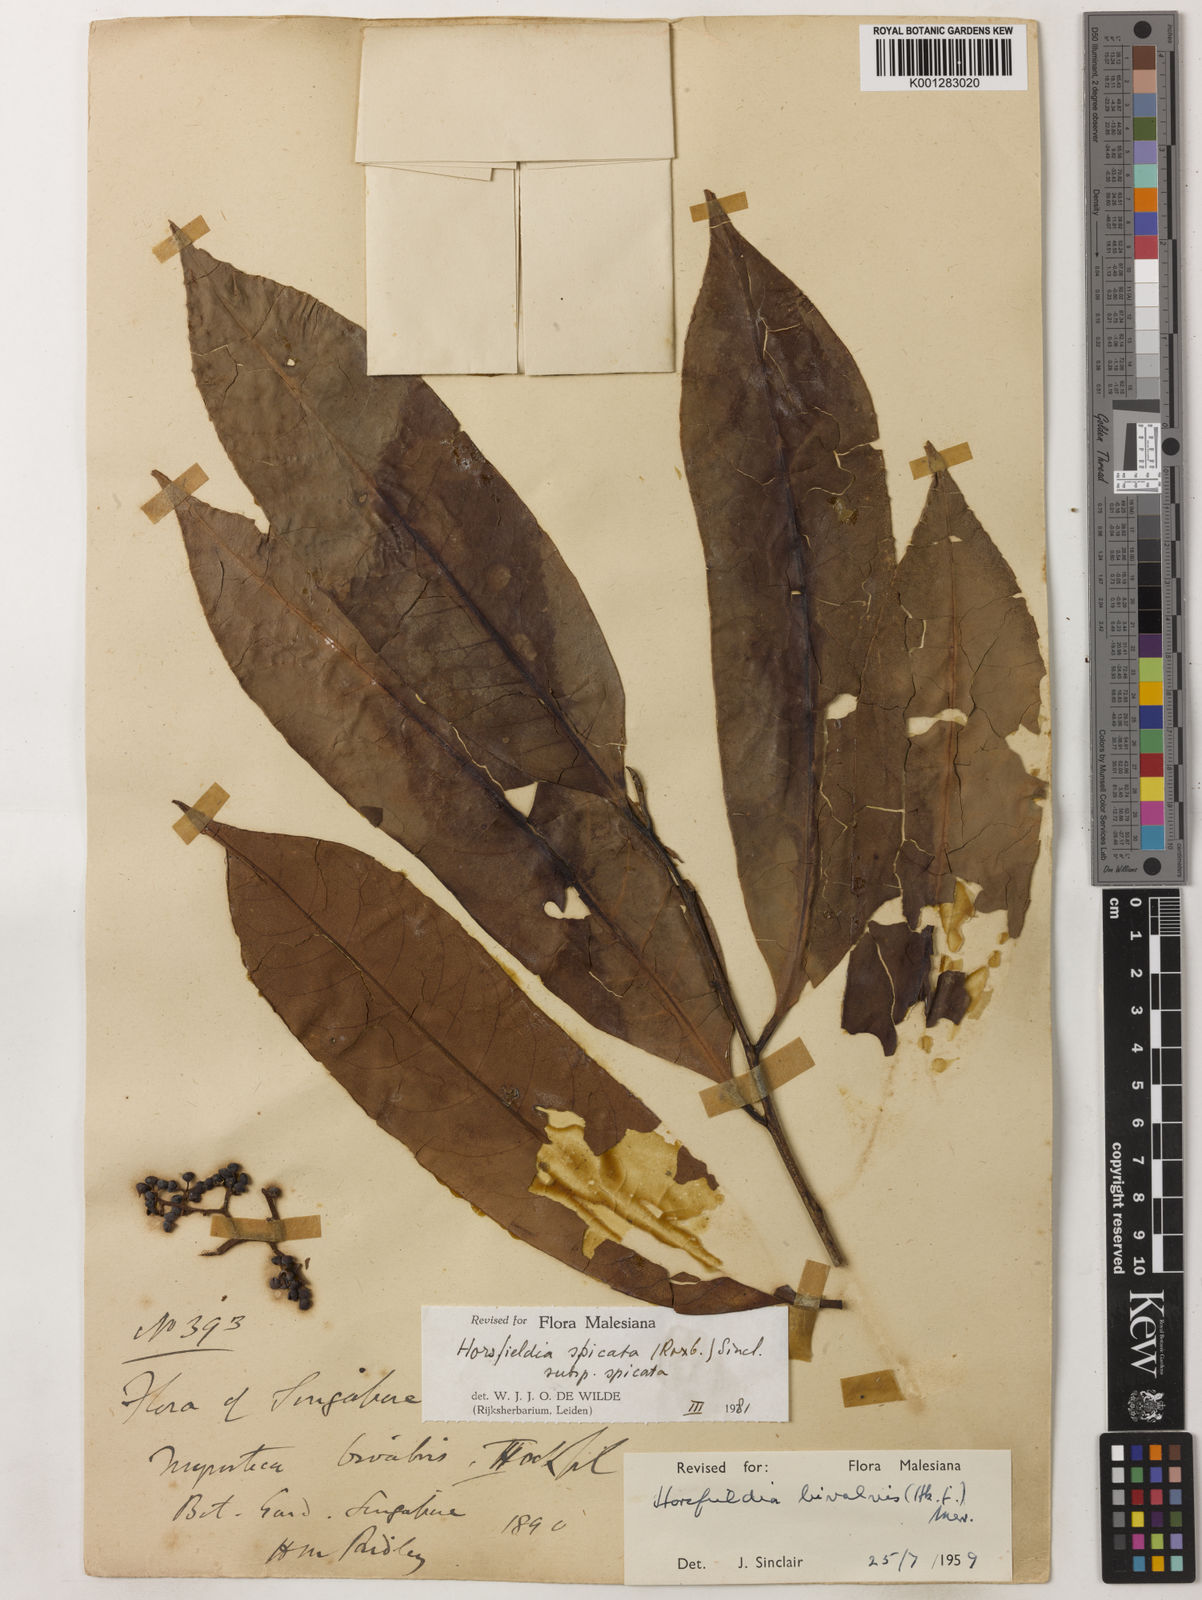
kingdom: Plantae
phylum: Tracheophyta
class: Magnoliopsida
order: Magnoliales
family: Myristicaceae
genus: Horsfieldia
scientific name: Horsfieldia spicata
